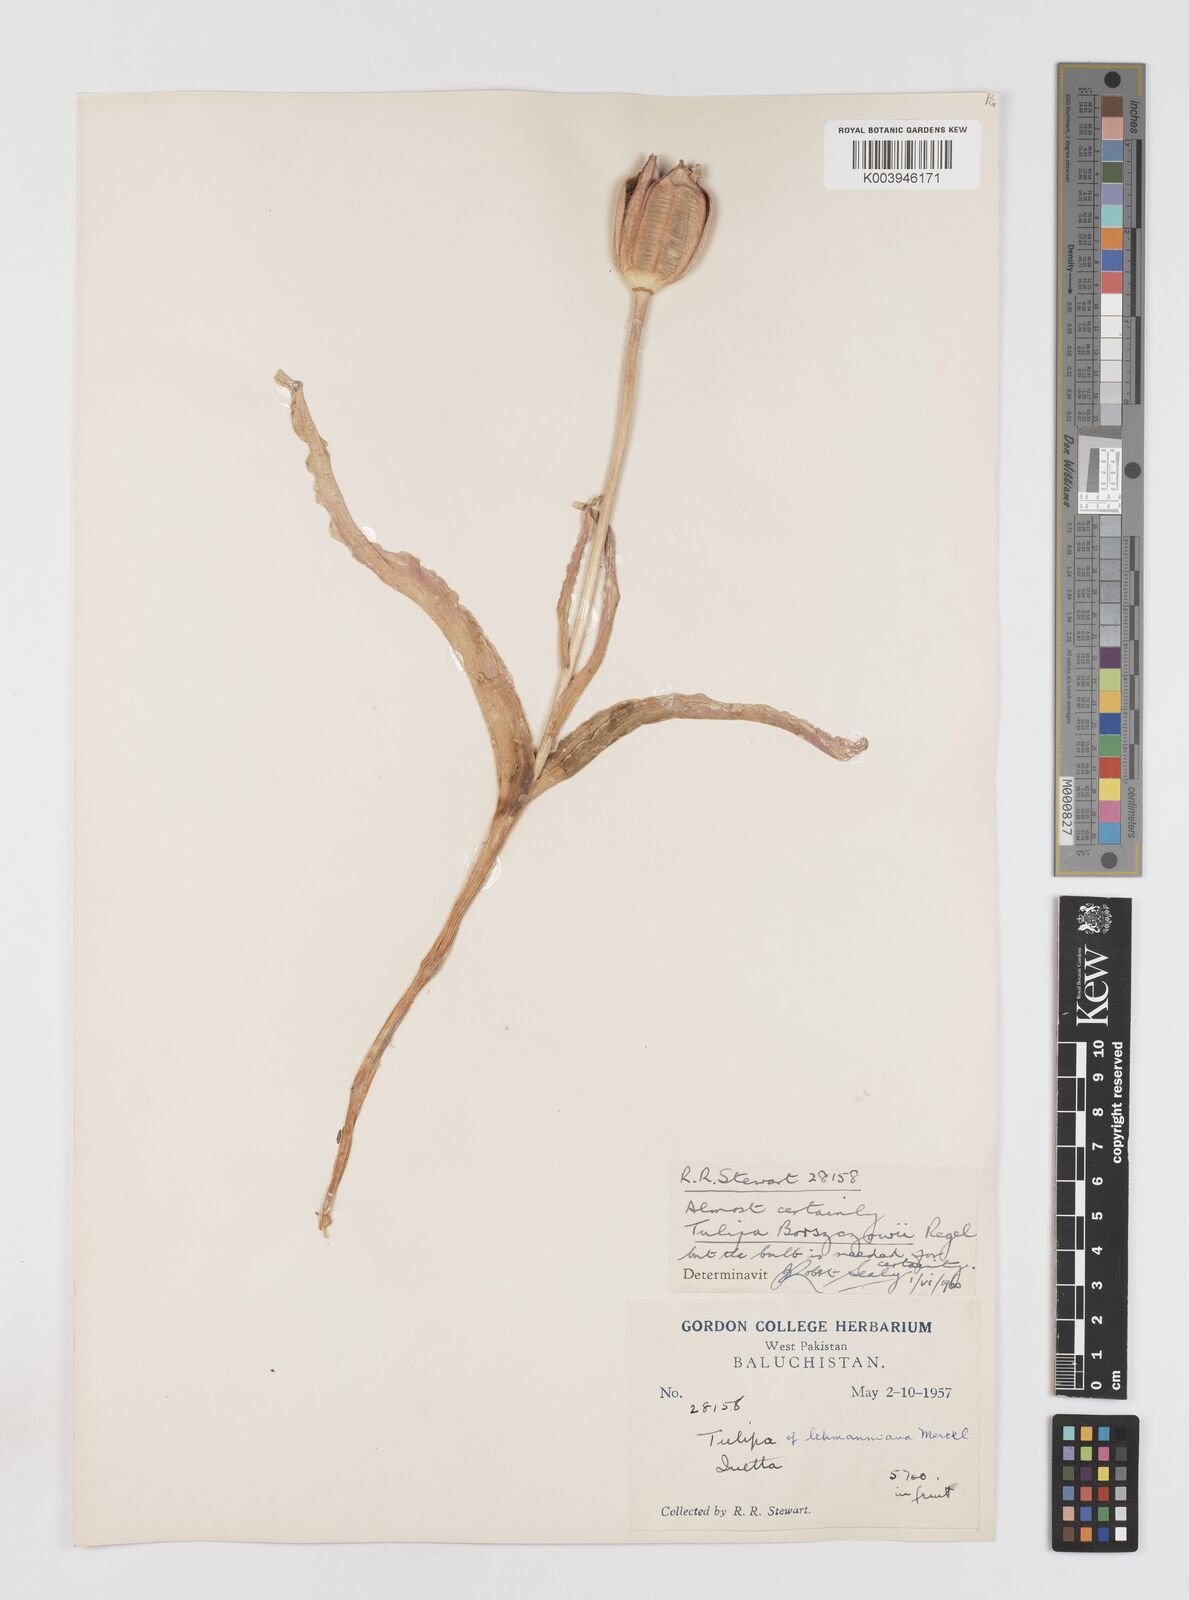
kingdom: Plantae
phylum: Tracheophyta
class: Liliopsida
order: Liliales
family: Liliaceae
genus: Tulipa
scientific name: Tulipa borszczowii
